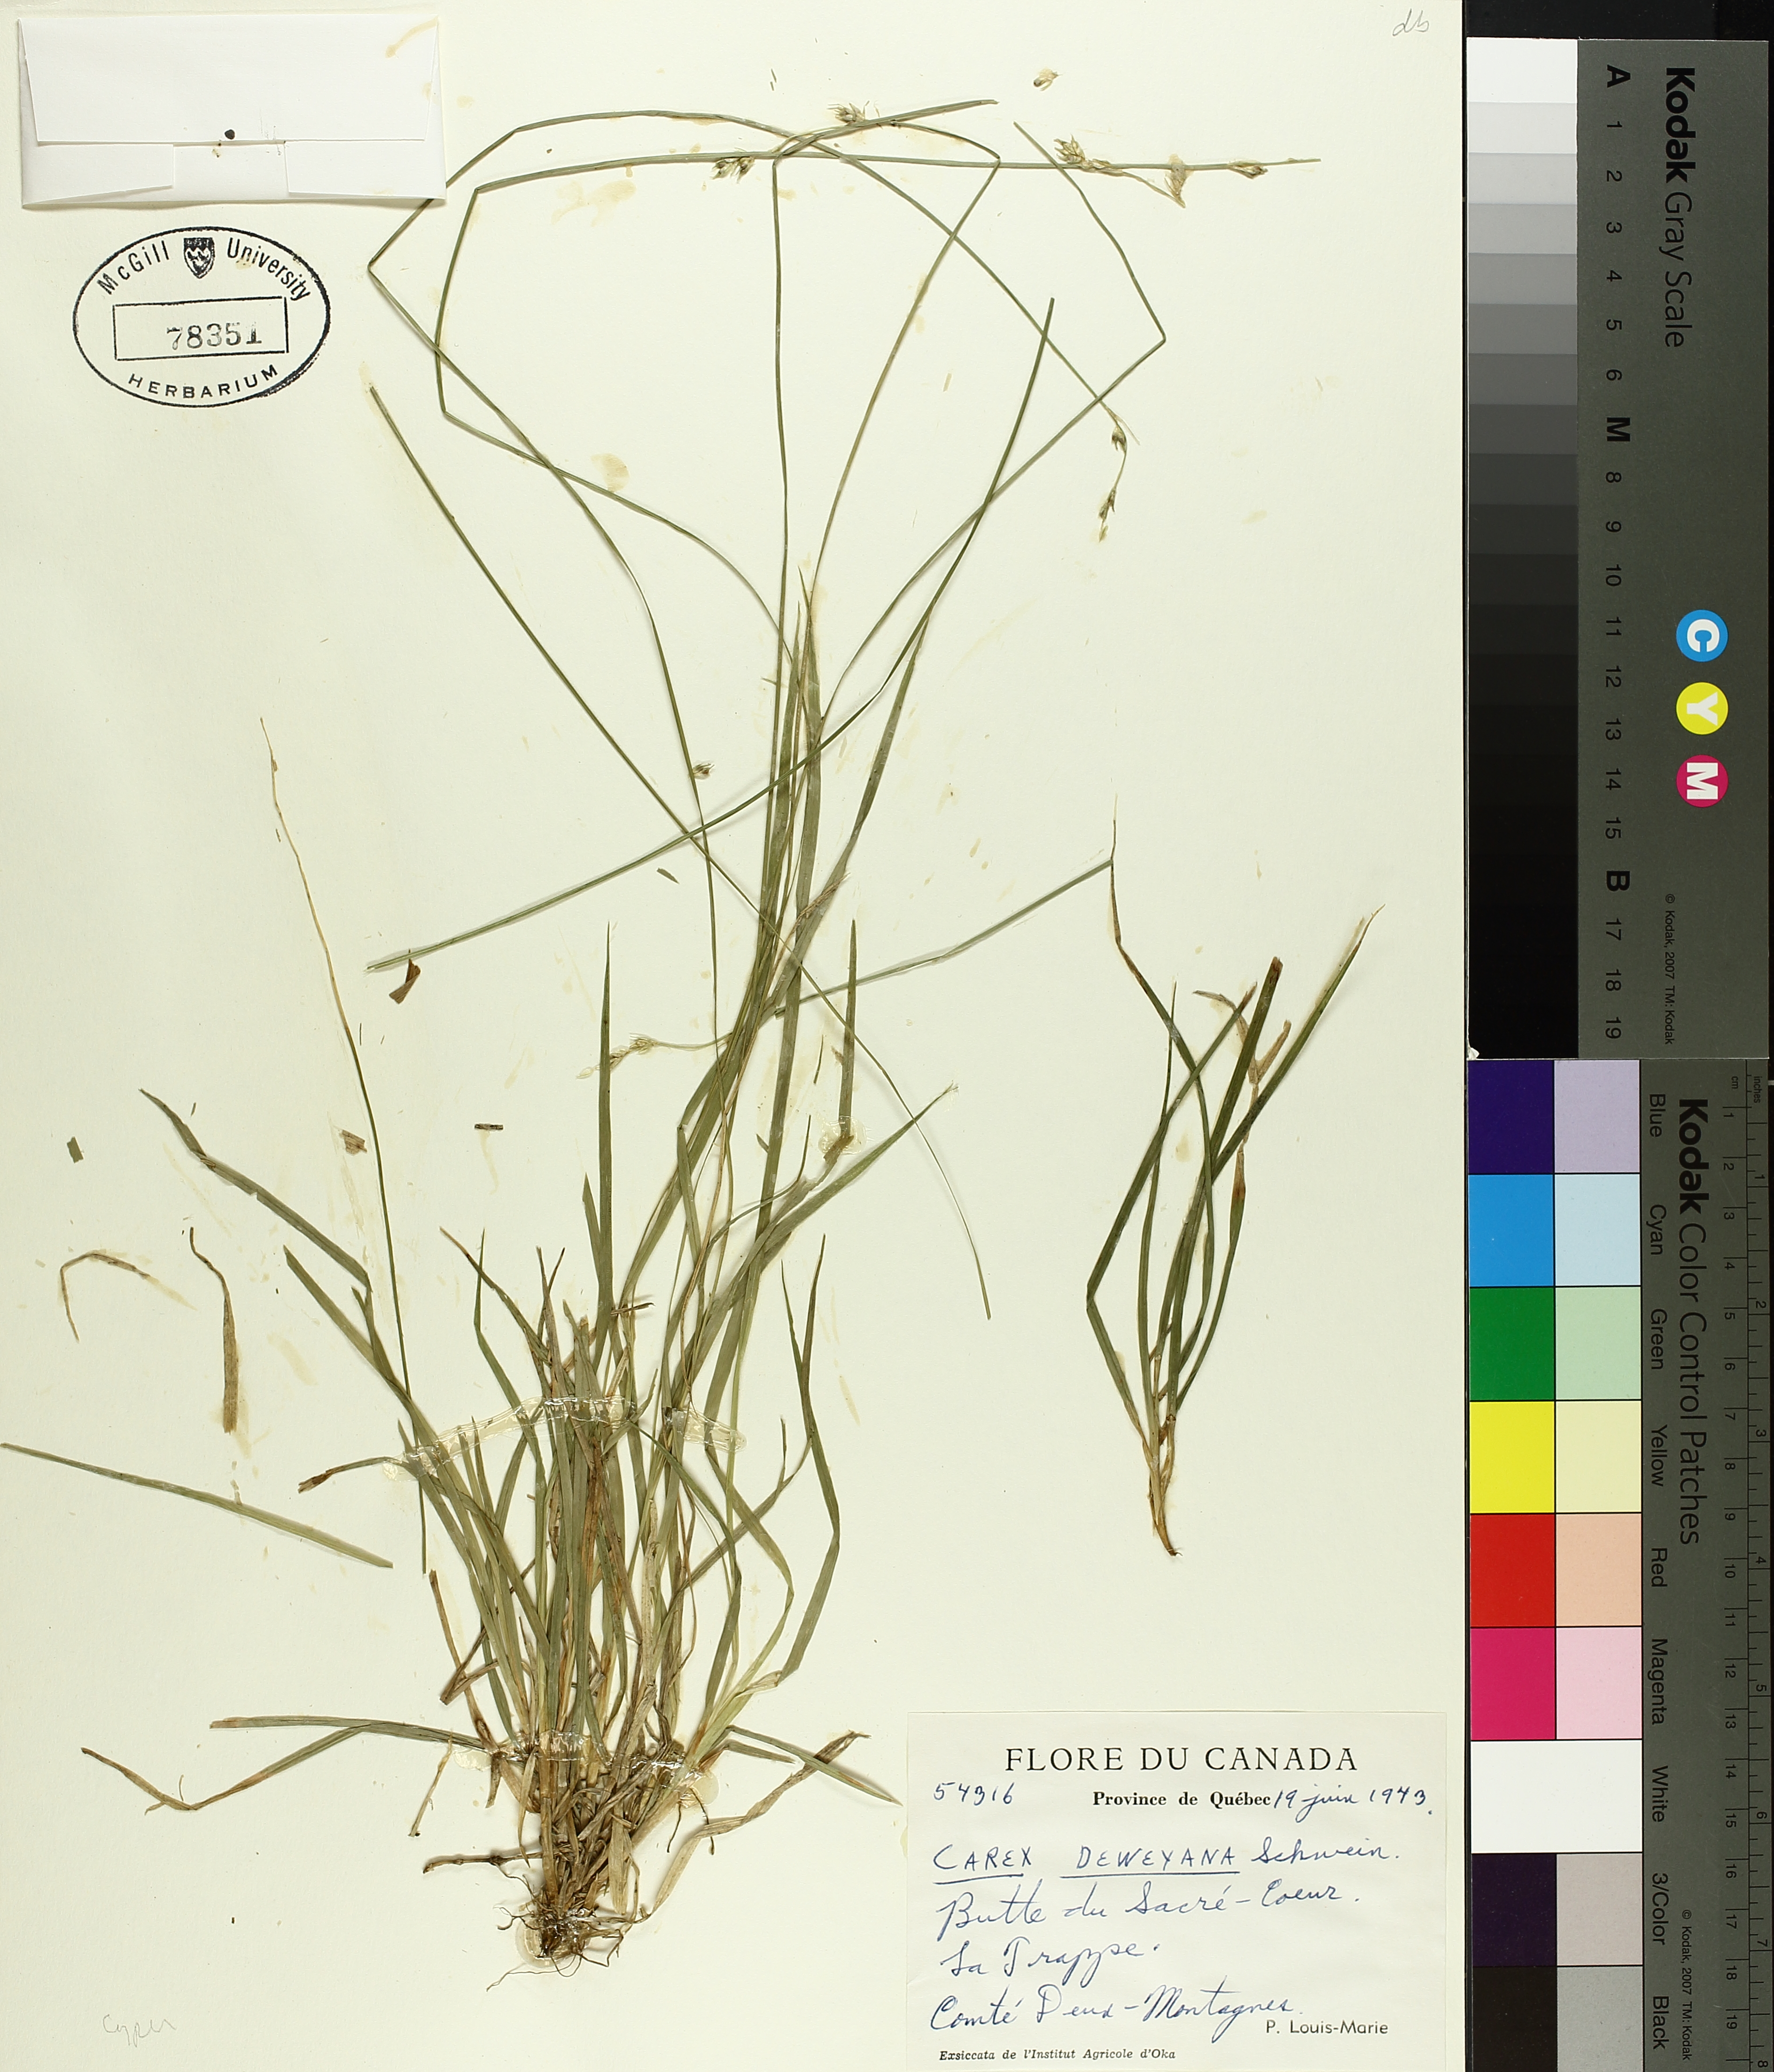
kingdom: Plantae
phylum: Tracheophyta
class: Liliopsida
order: Poales
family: Cyperaceae
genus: Carex
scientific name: Carex deweyana
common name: Dewey's sedge
